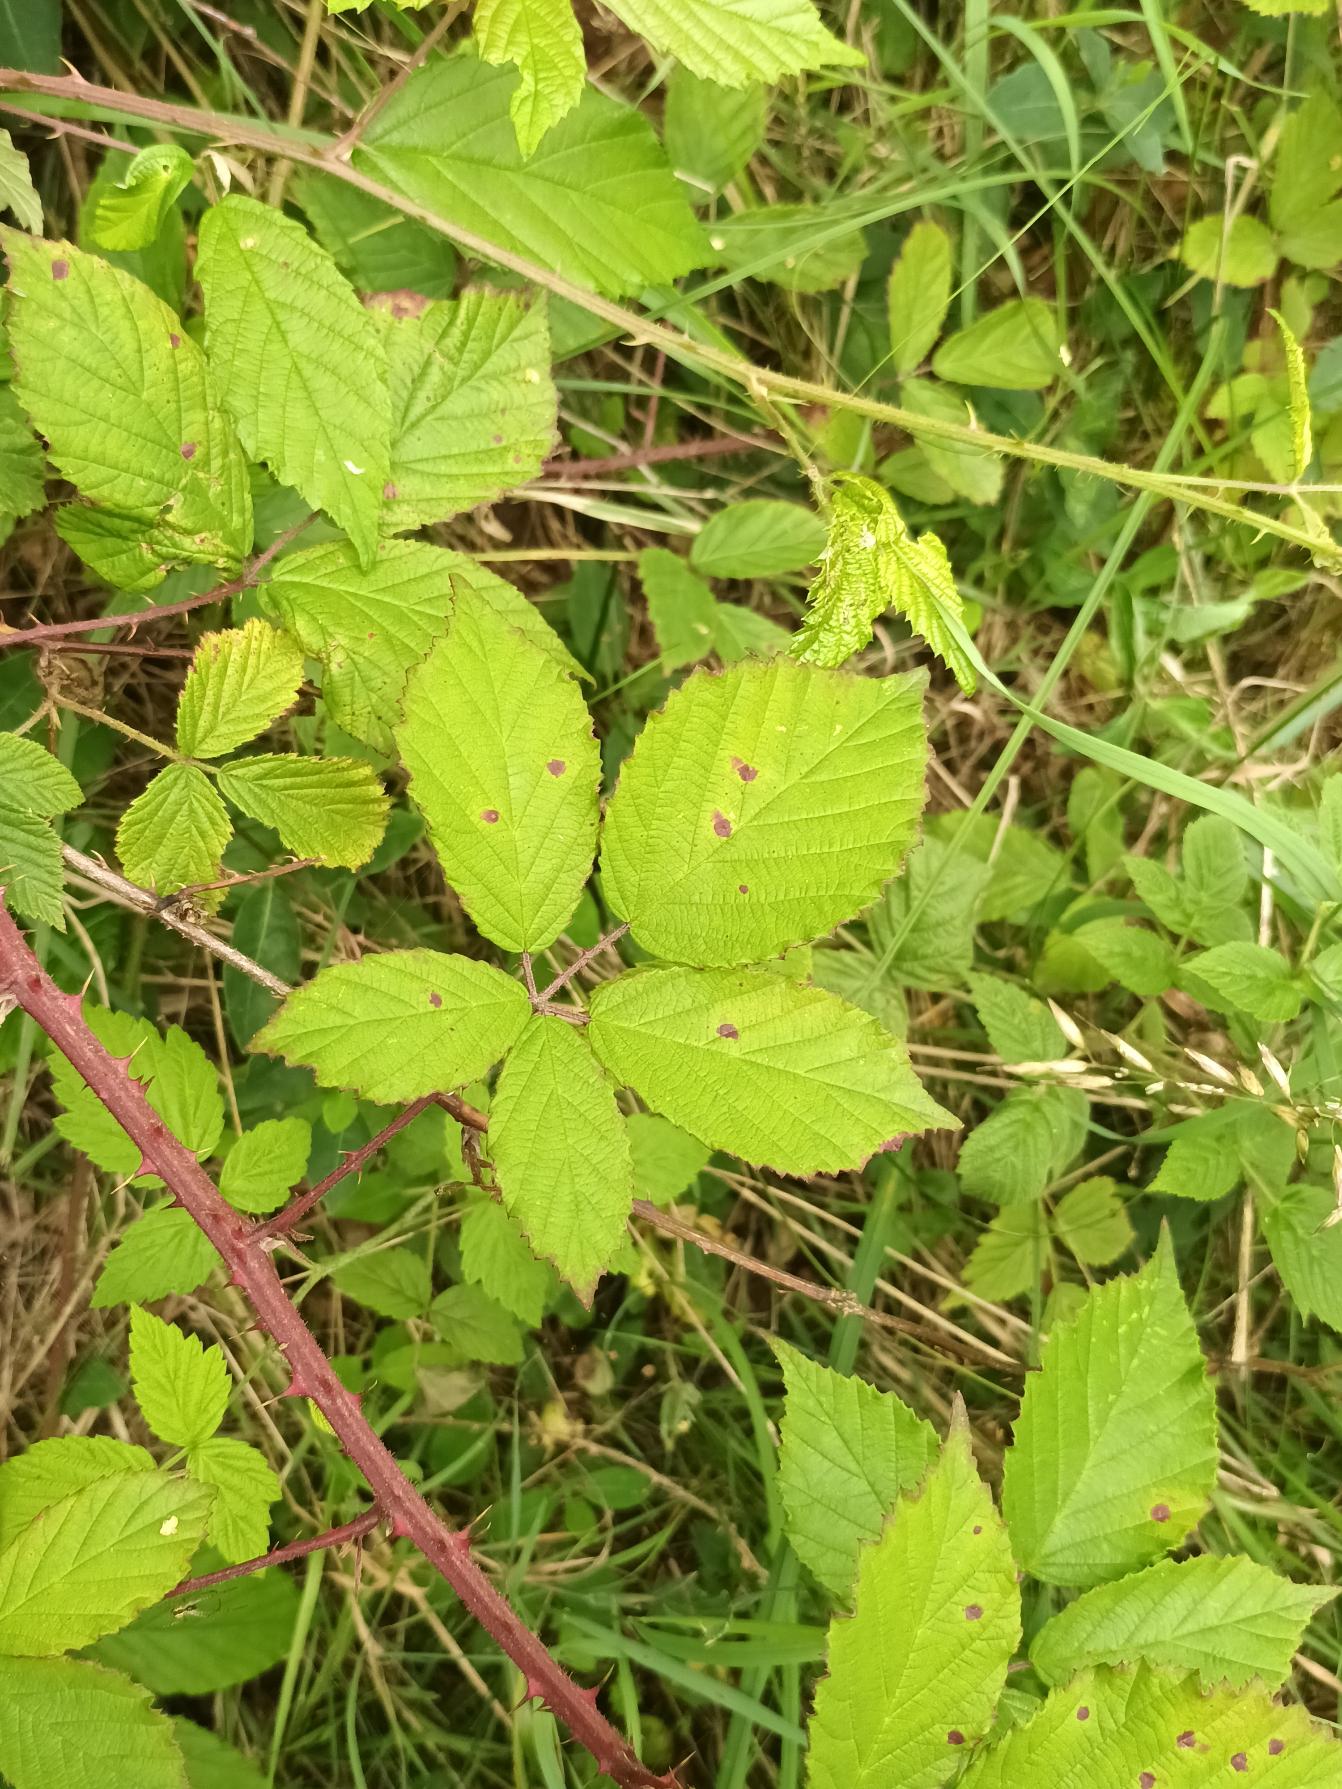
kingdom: Plantae
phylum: Tracheophyta
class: Magnoliopsida
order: Rosales
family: Rosaceae
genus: Rubus
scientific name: Rubus radula
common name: Rasperu brombær
